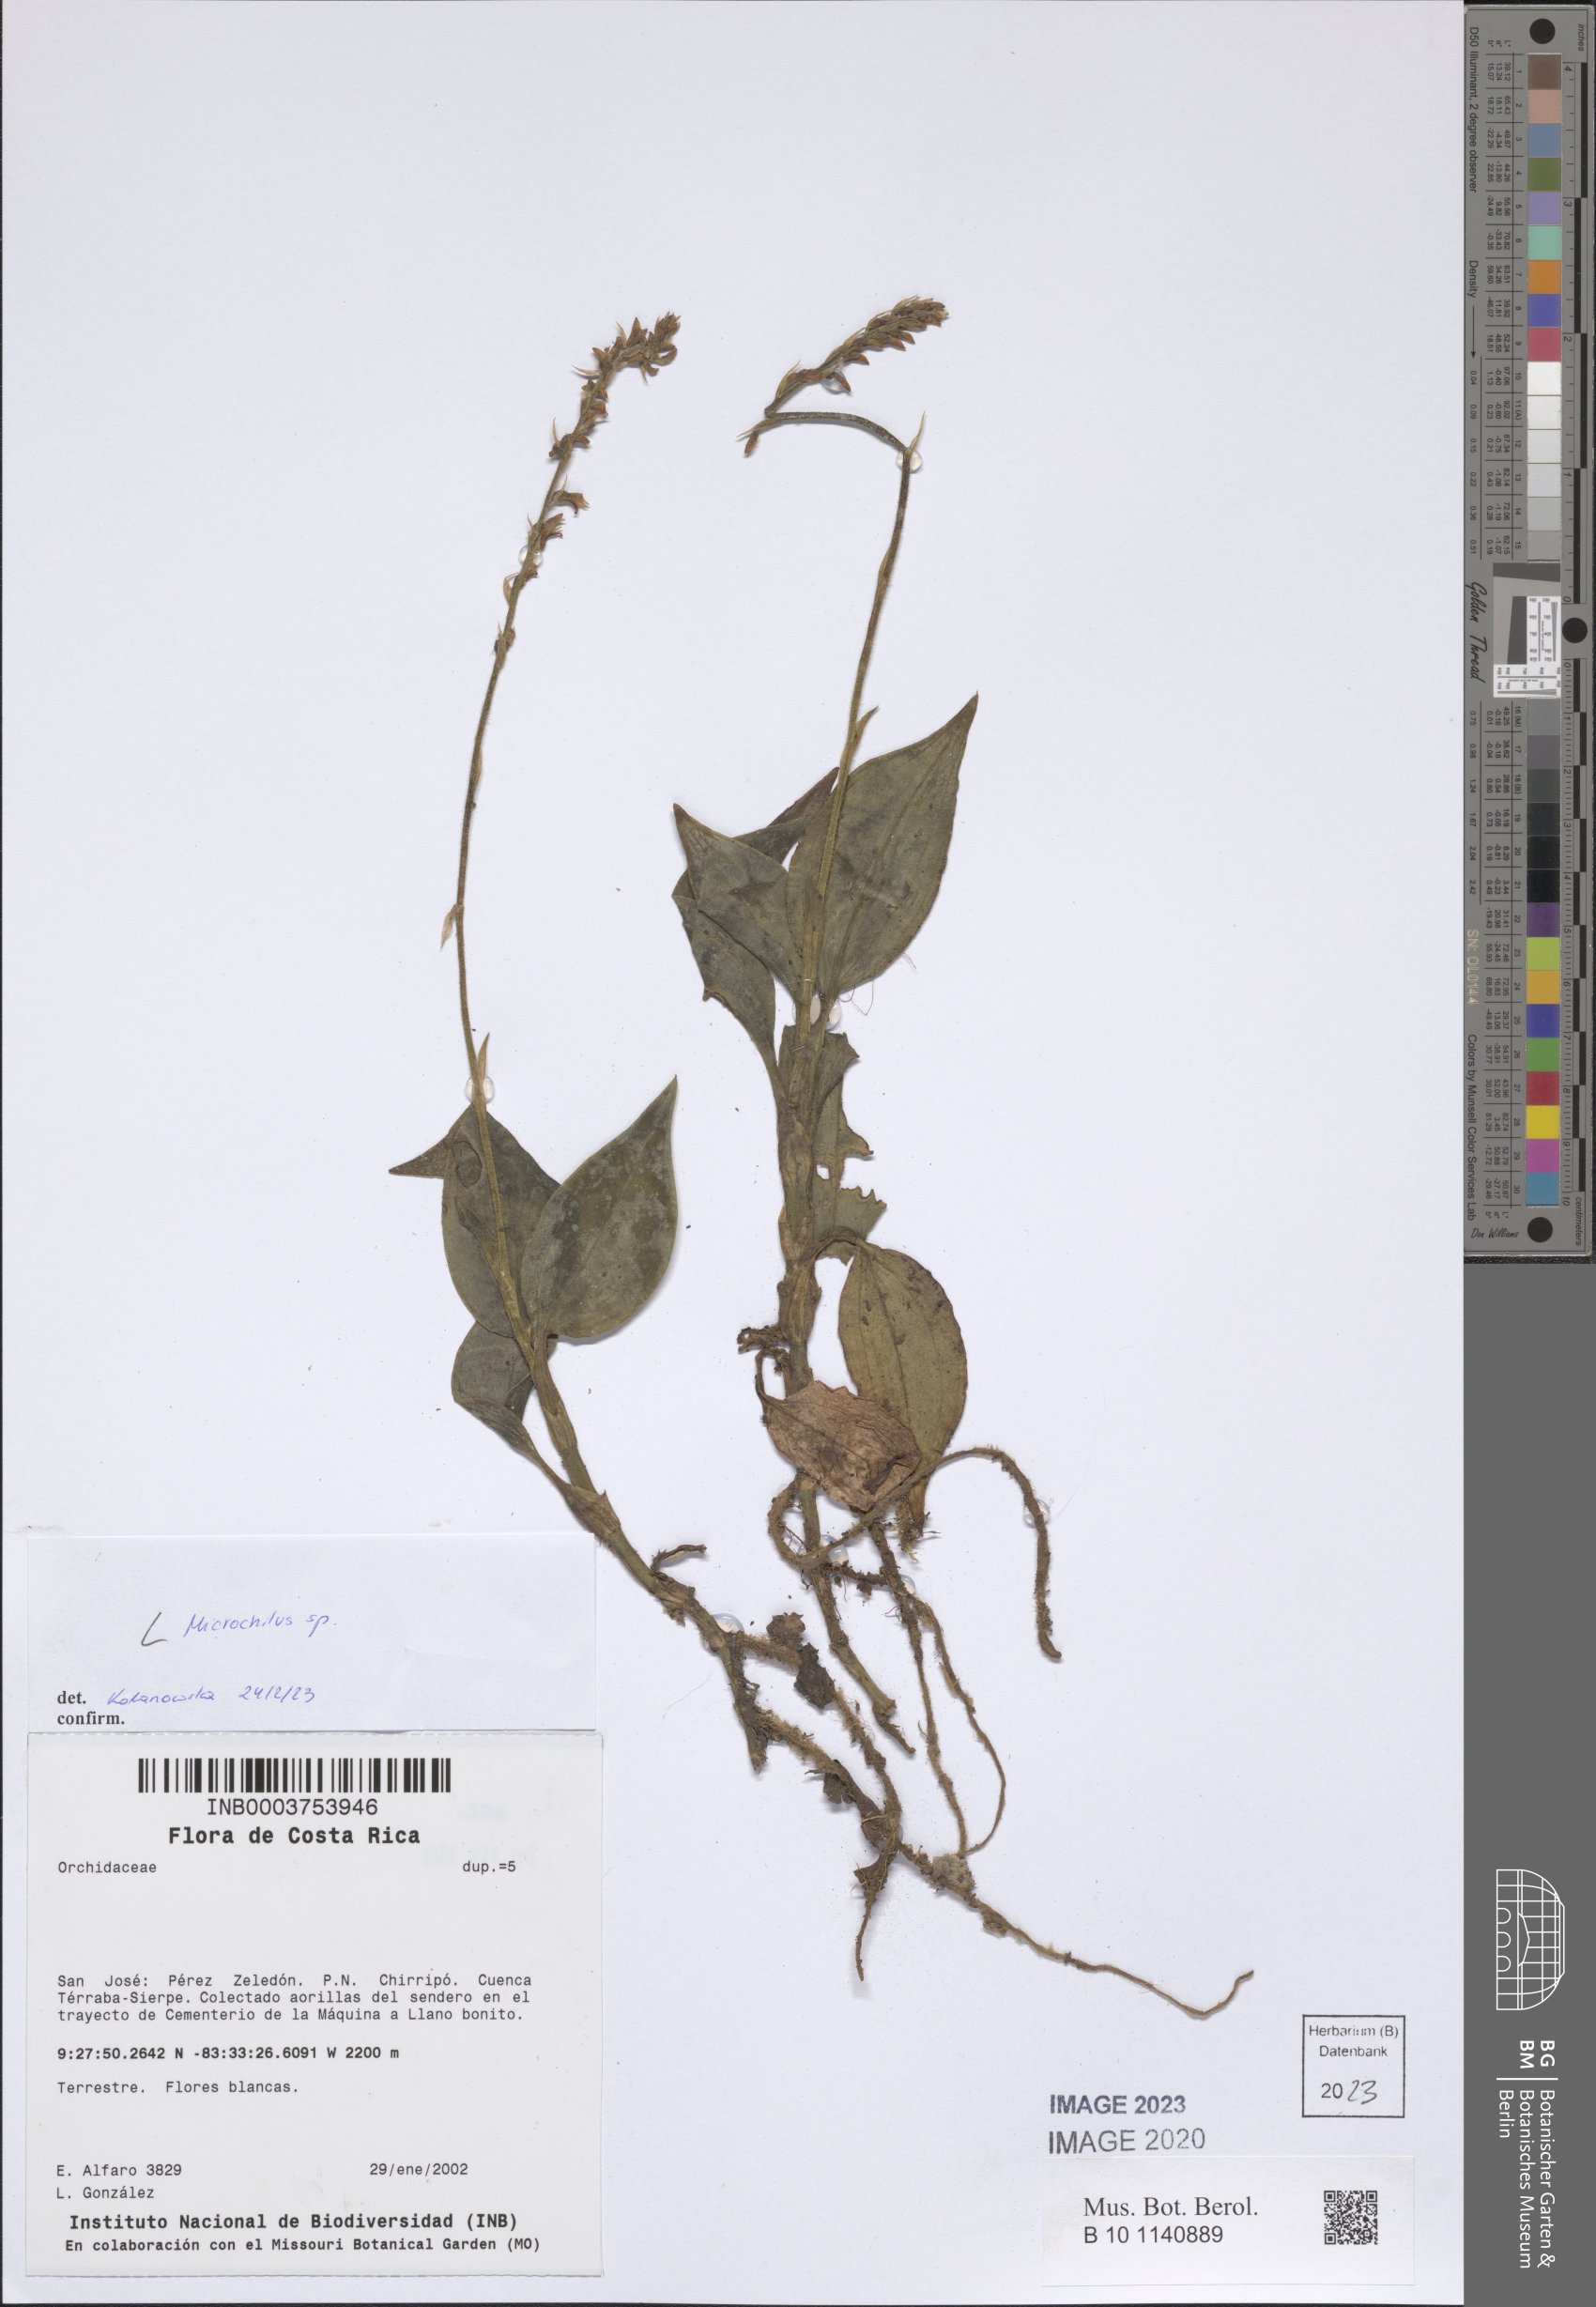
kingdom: Plantae
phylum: Tracheophyta
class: Liliopsida
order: Asparagales
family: Orchidaceae
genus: Microchilus
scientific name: Microchilus
